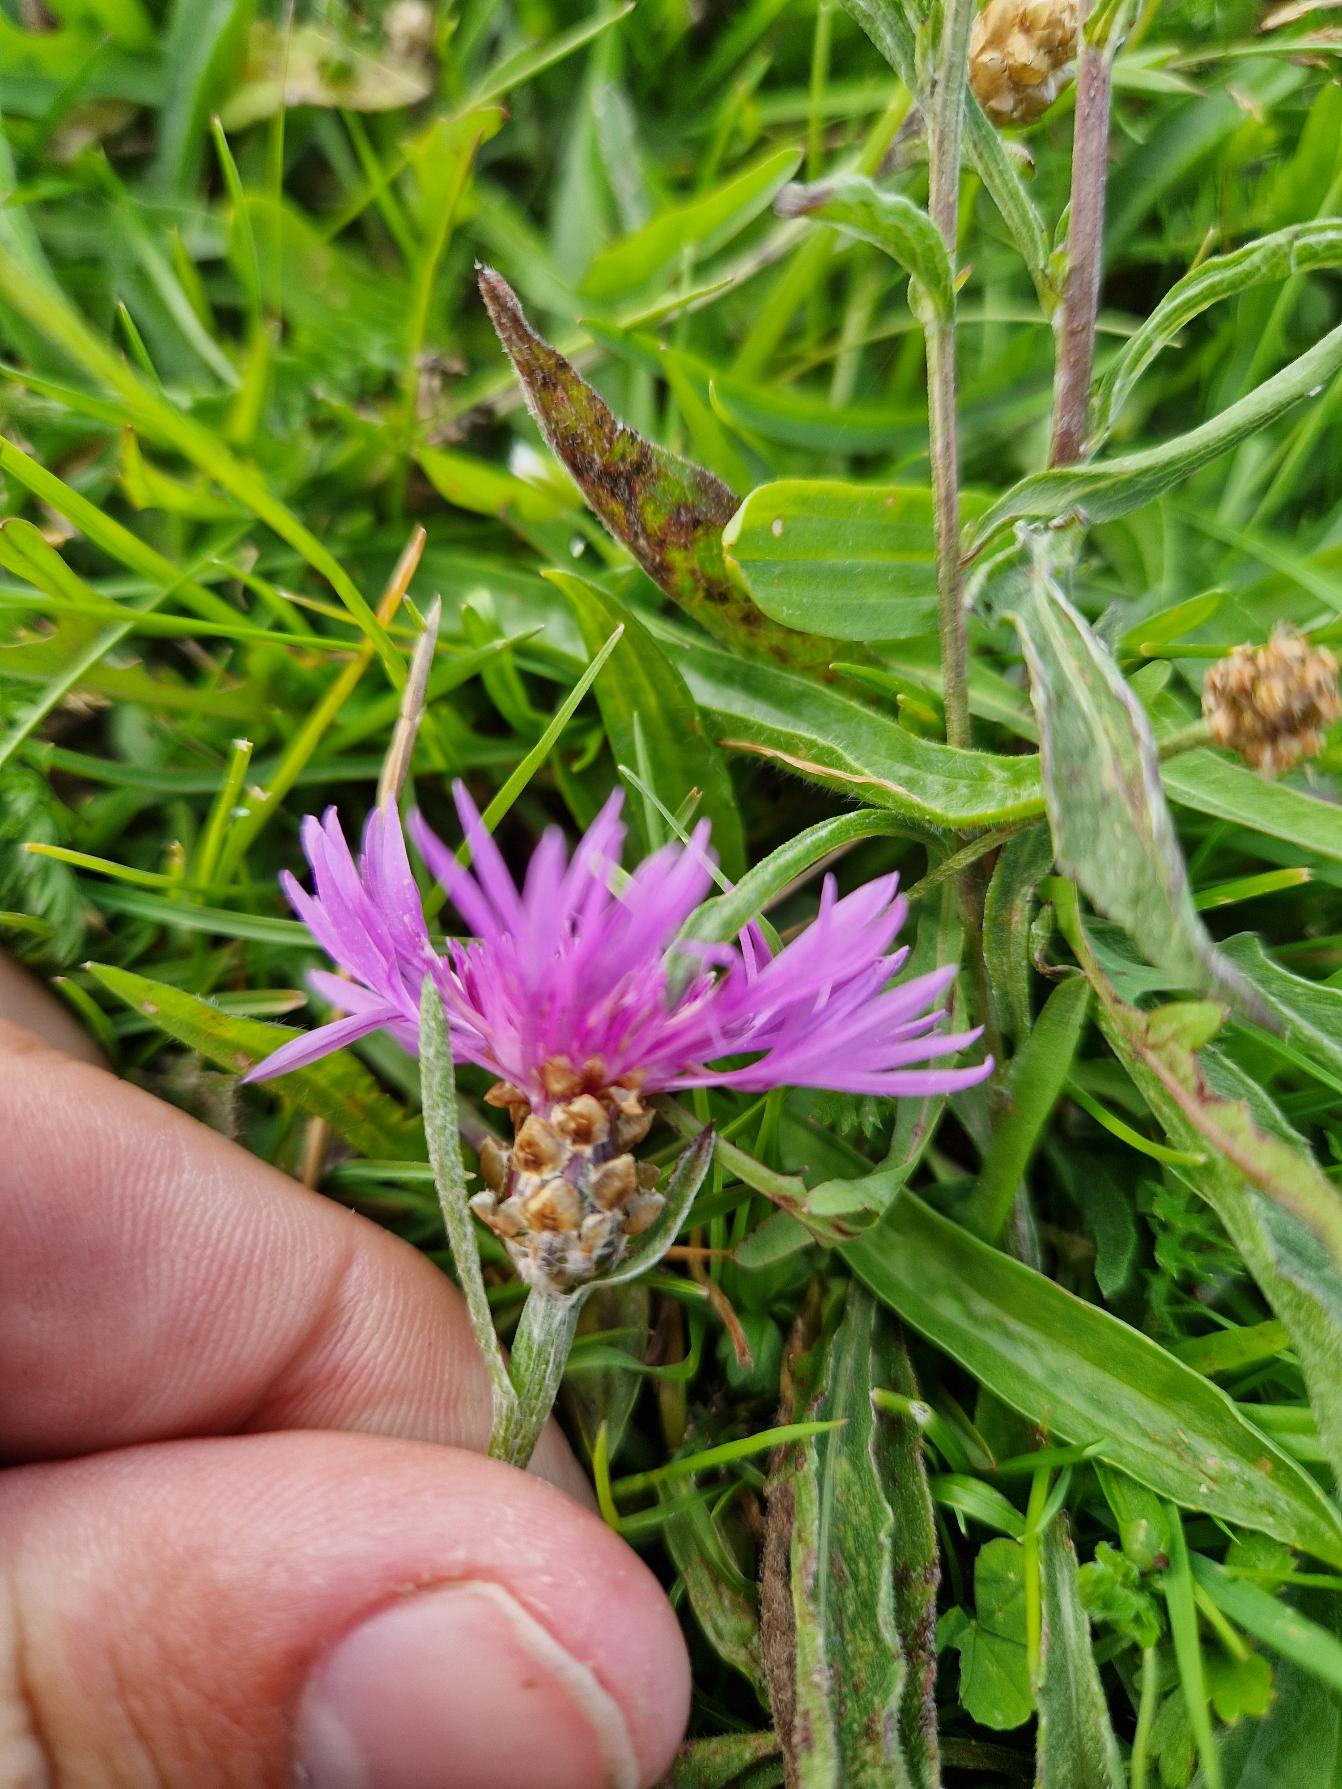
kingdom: Plantae
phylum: Tracheophyta
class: Magnoliopsida
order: Asterales
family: Asteraceae
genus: Centaurea
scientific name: Centaurea jacea
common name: Almindelig knopurt
